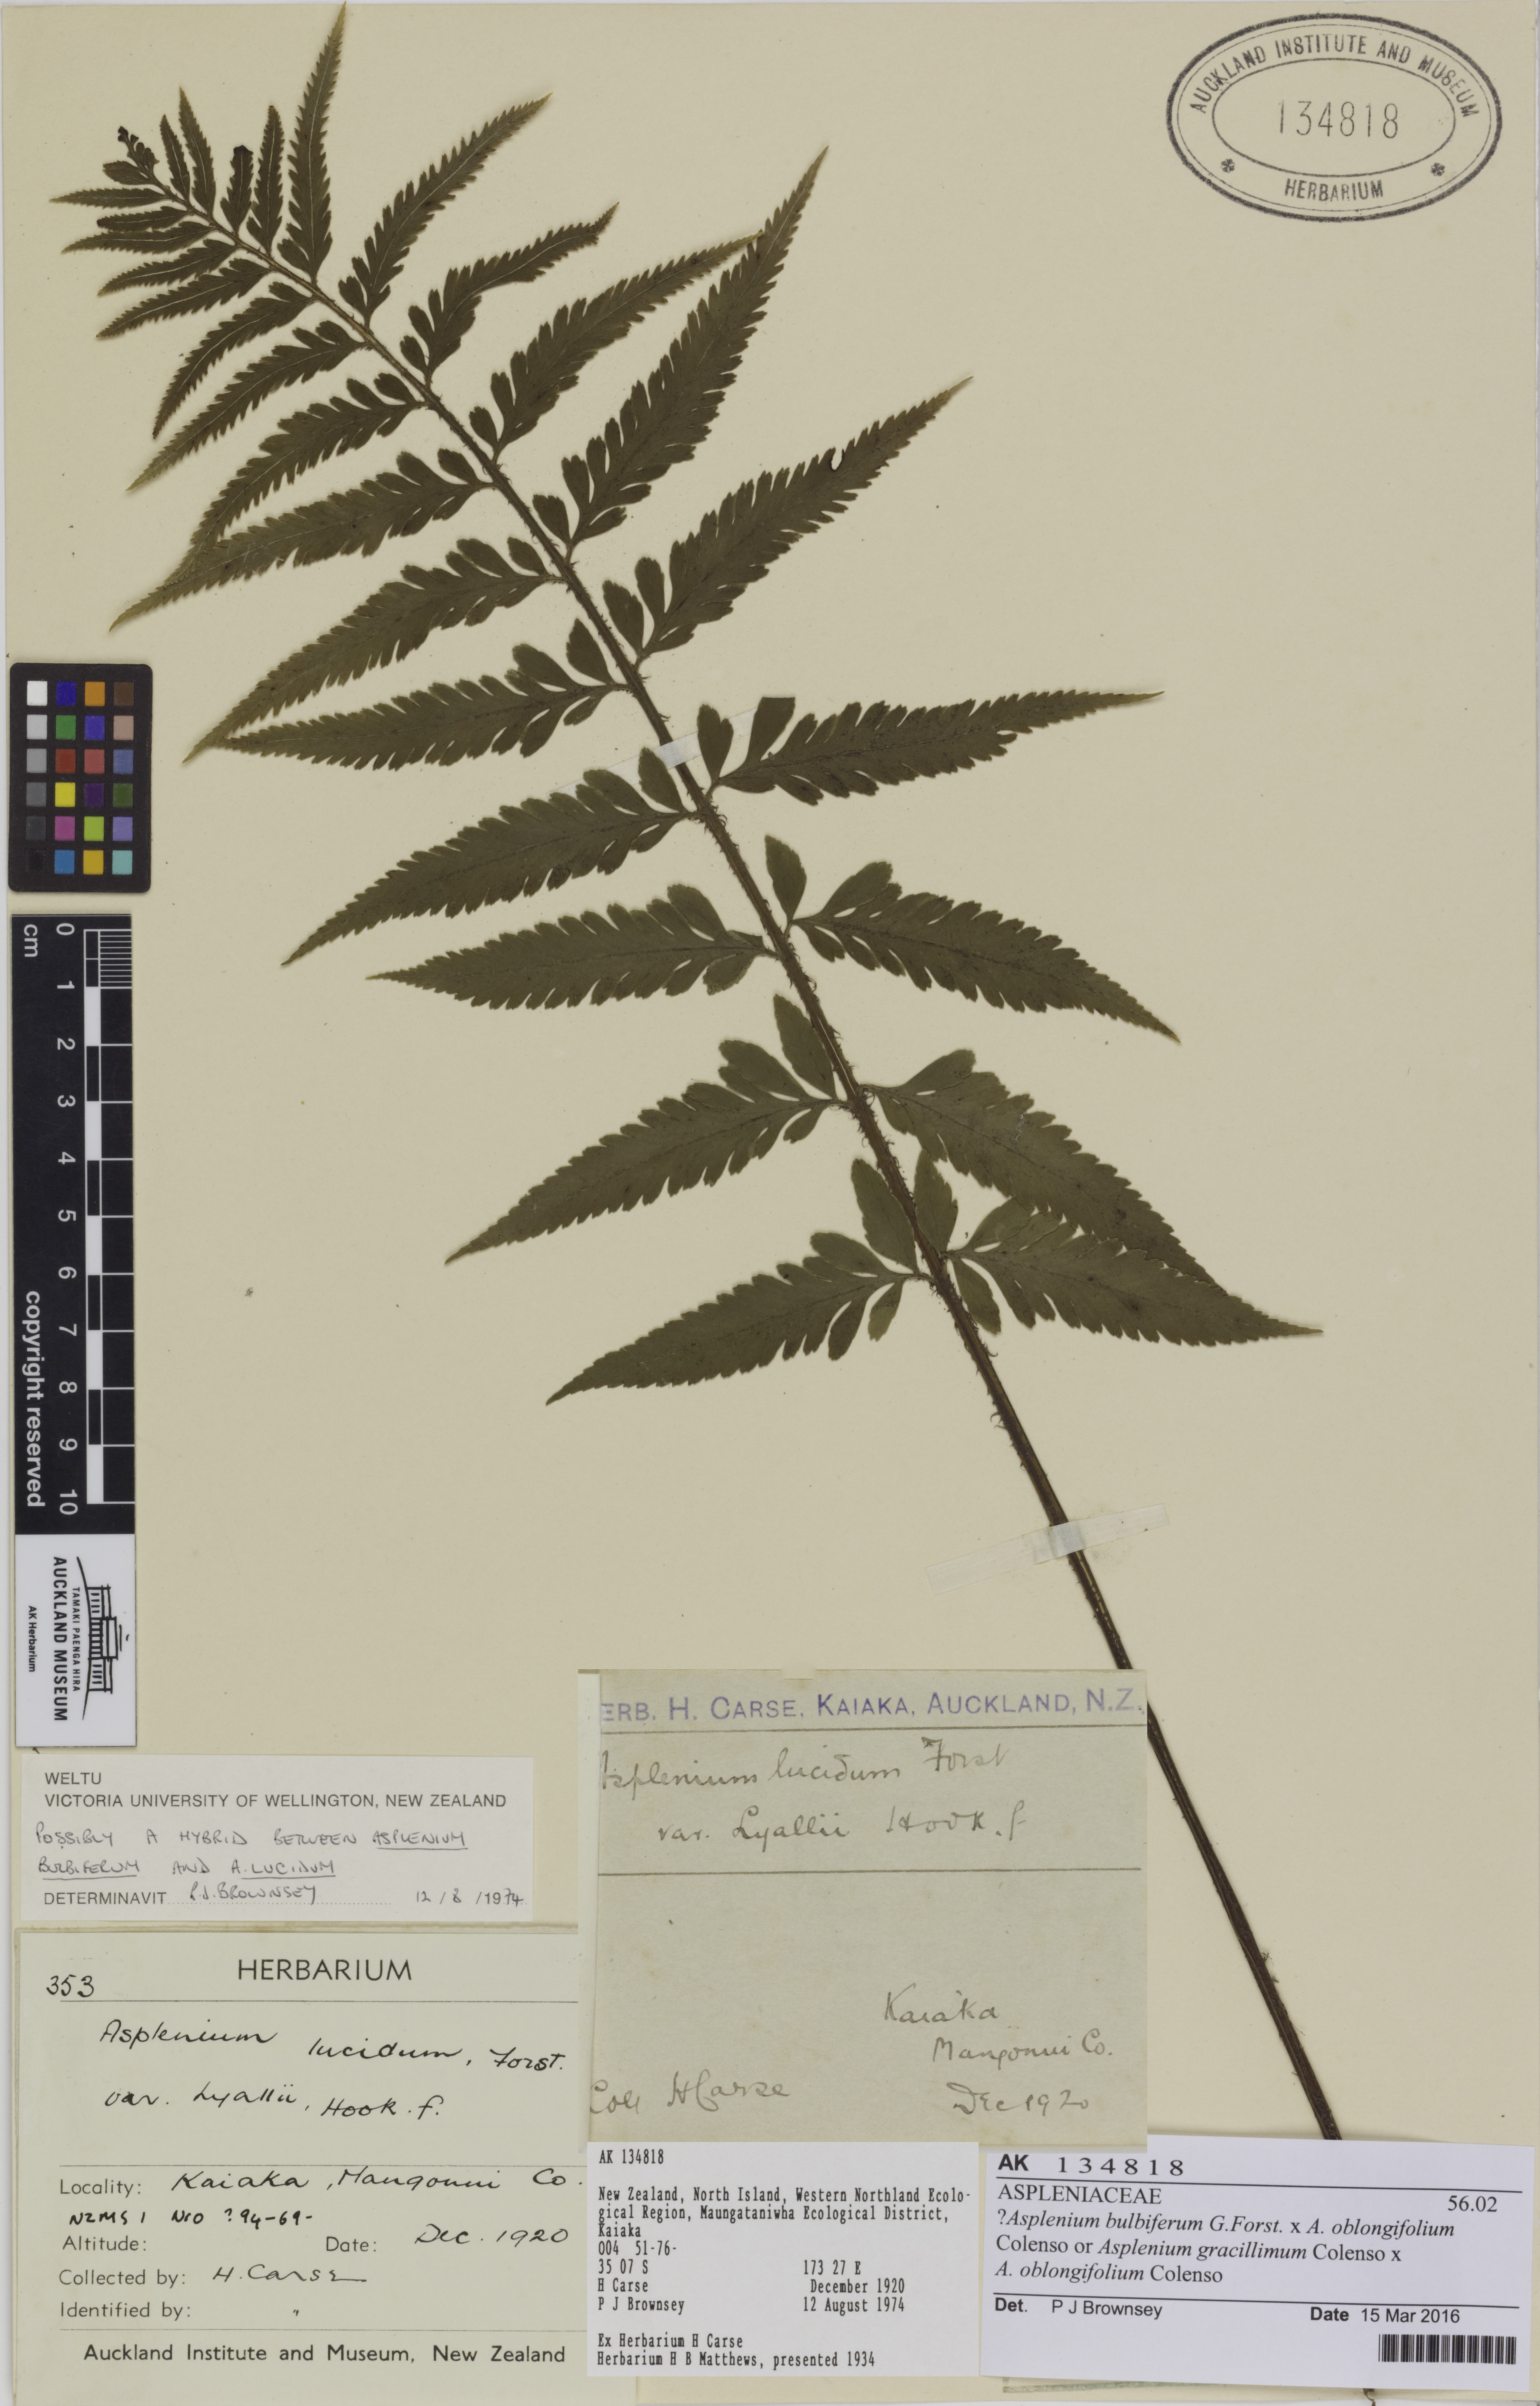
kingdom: Plantae
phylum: Tracheophyta
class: Polypodiopsida
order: Polypodiales
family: Aspleniaceae
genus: Asplenium
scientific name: Asplenium
